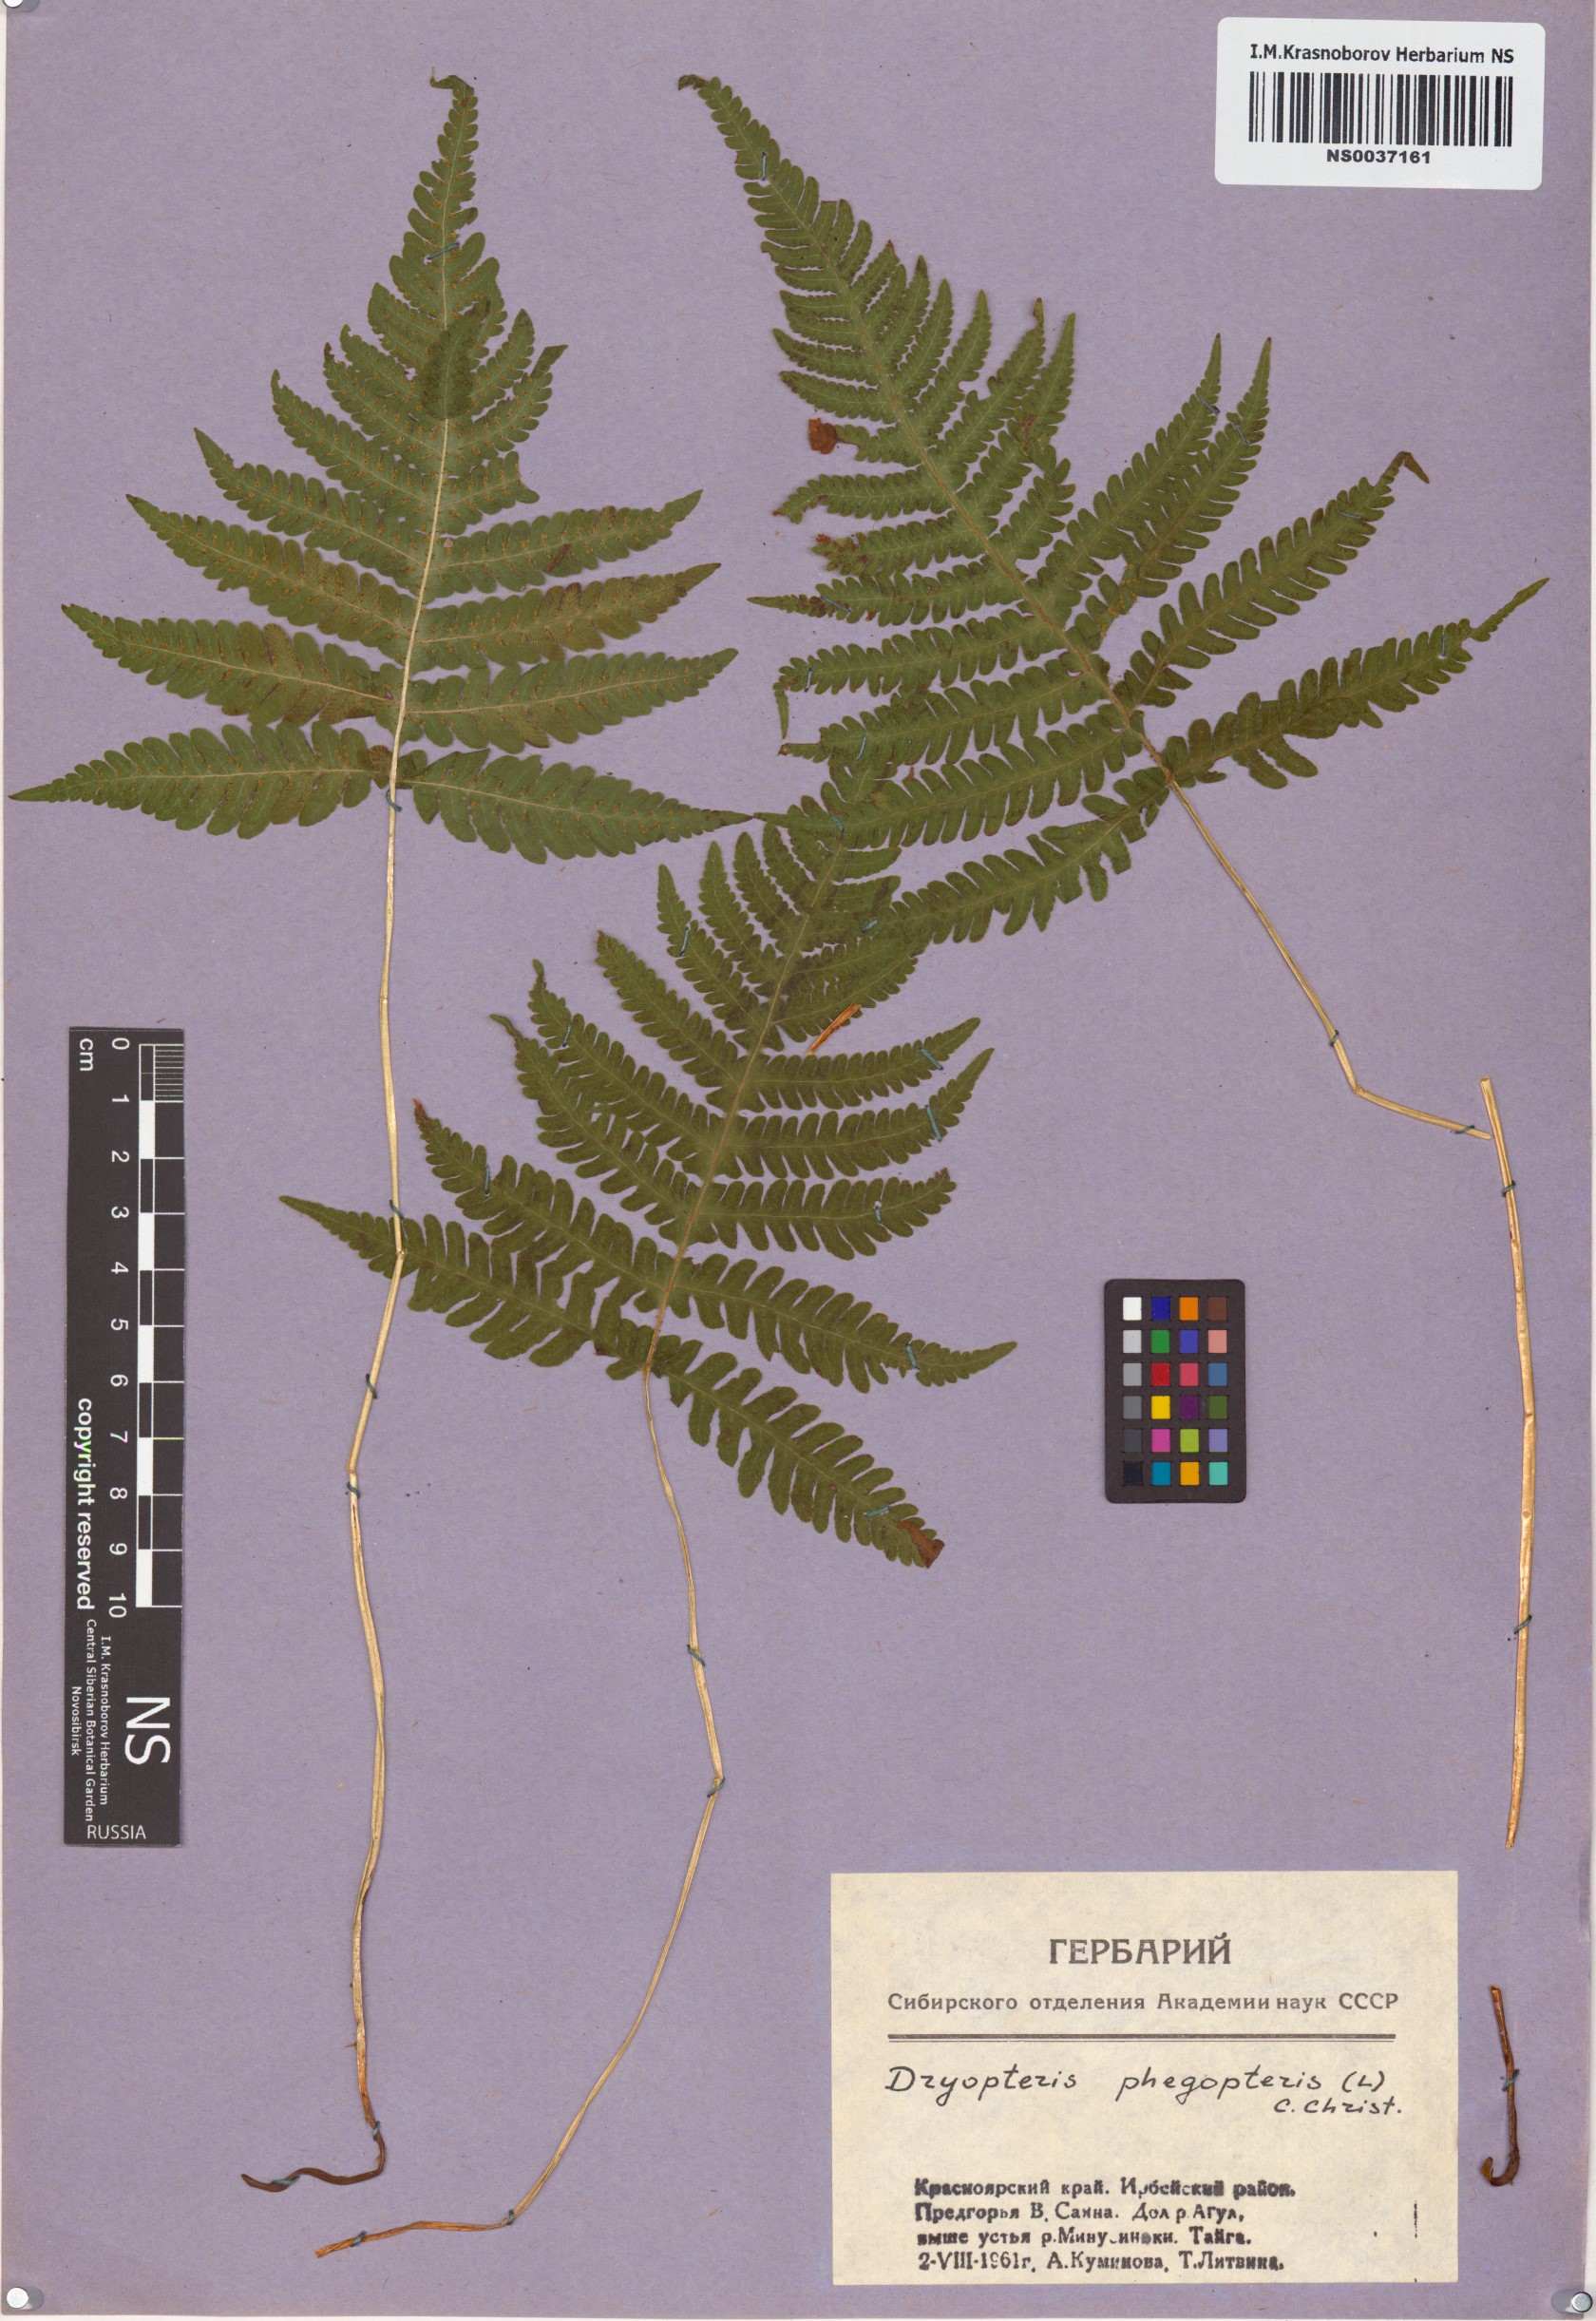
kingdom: Plantae
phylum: Tracheophyta
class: Polypodiopsida
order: Polypodiales
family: Thelypteridaceae
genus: Phegopteris
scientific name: Phegopteris connectilis
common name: Beech fern
